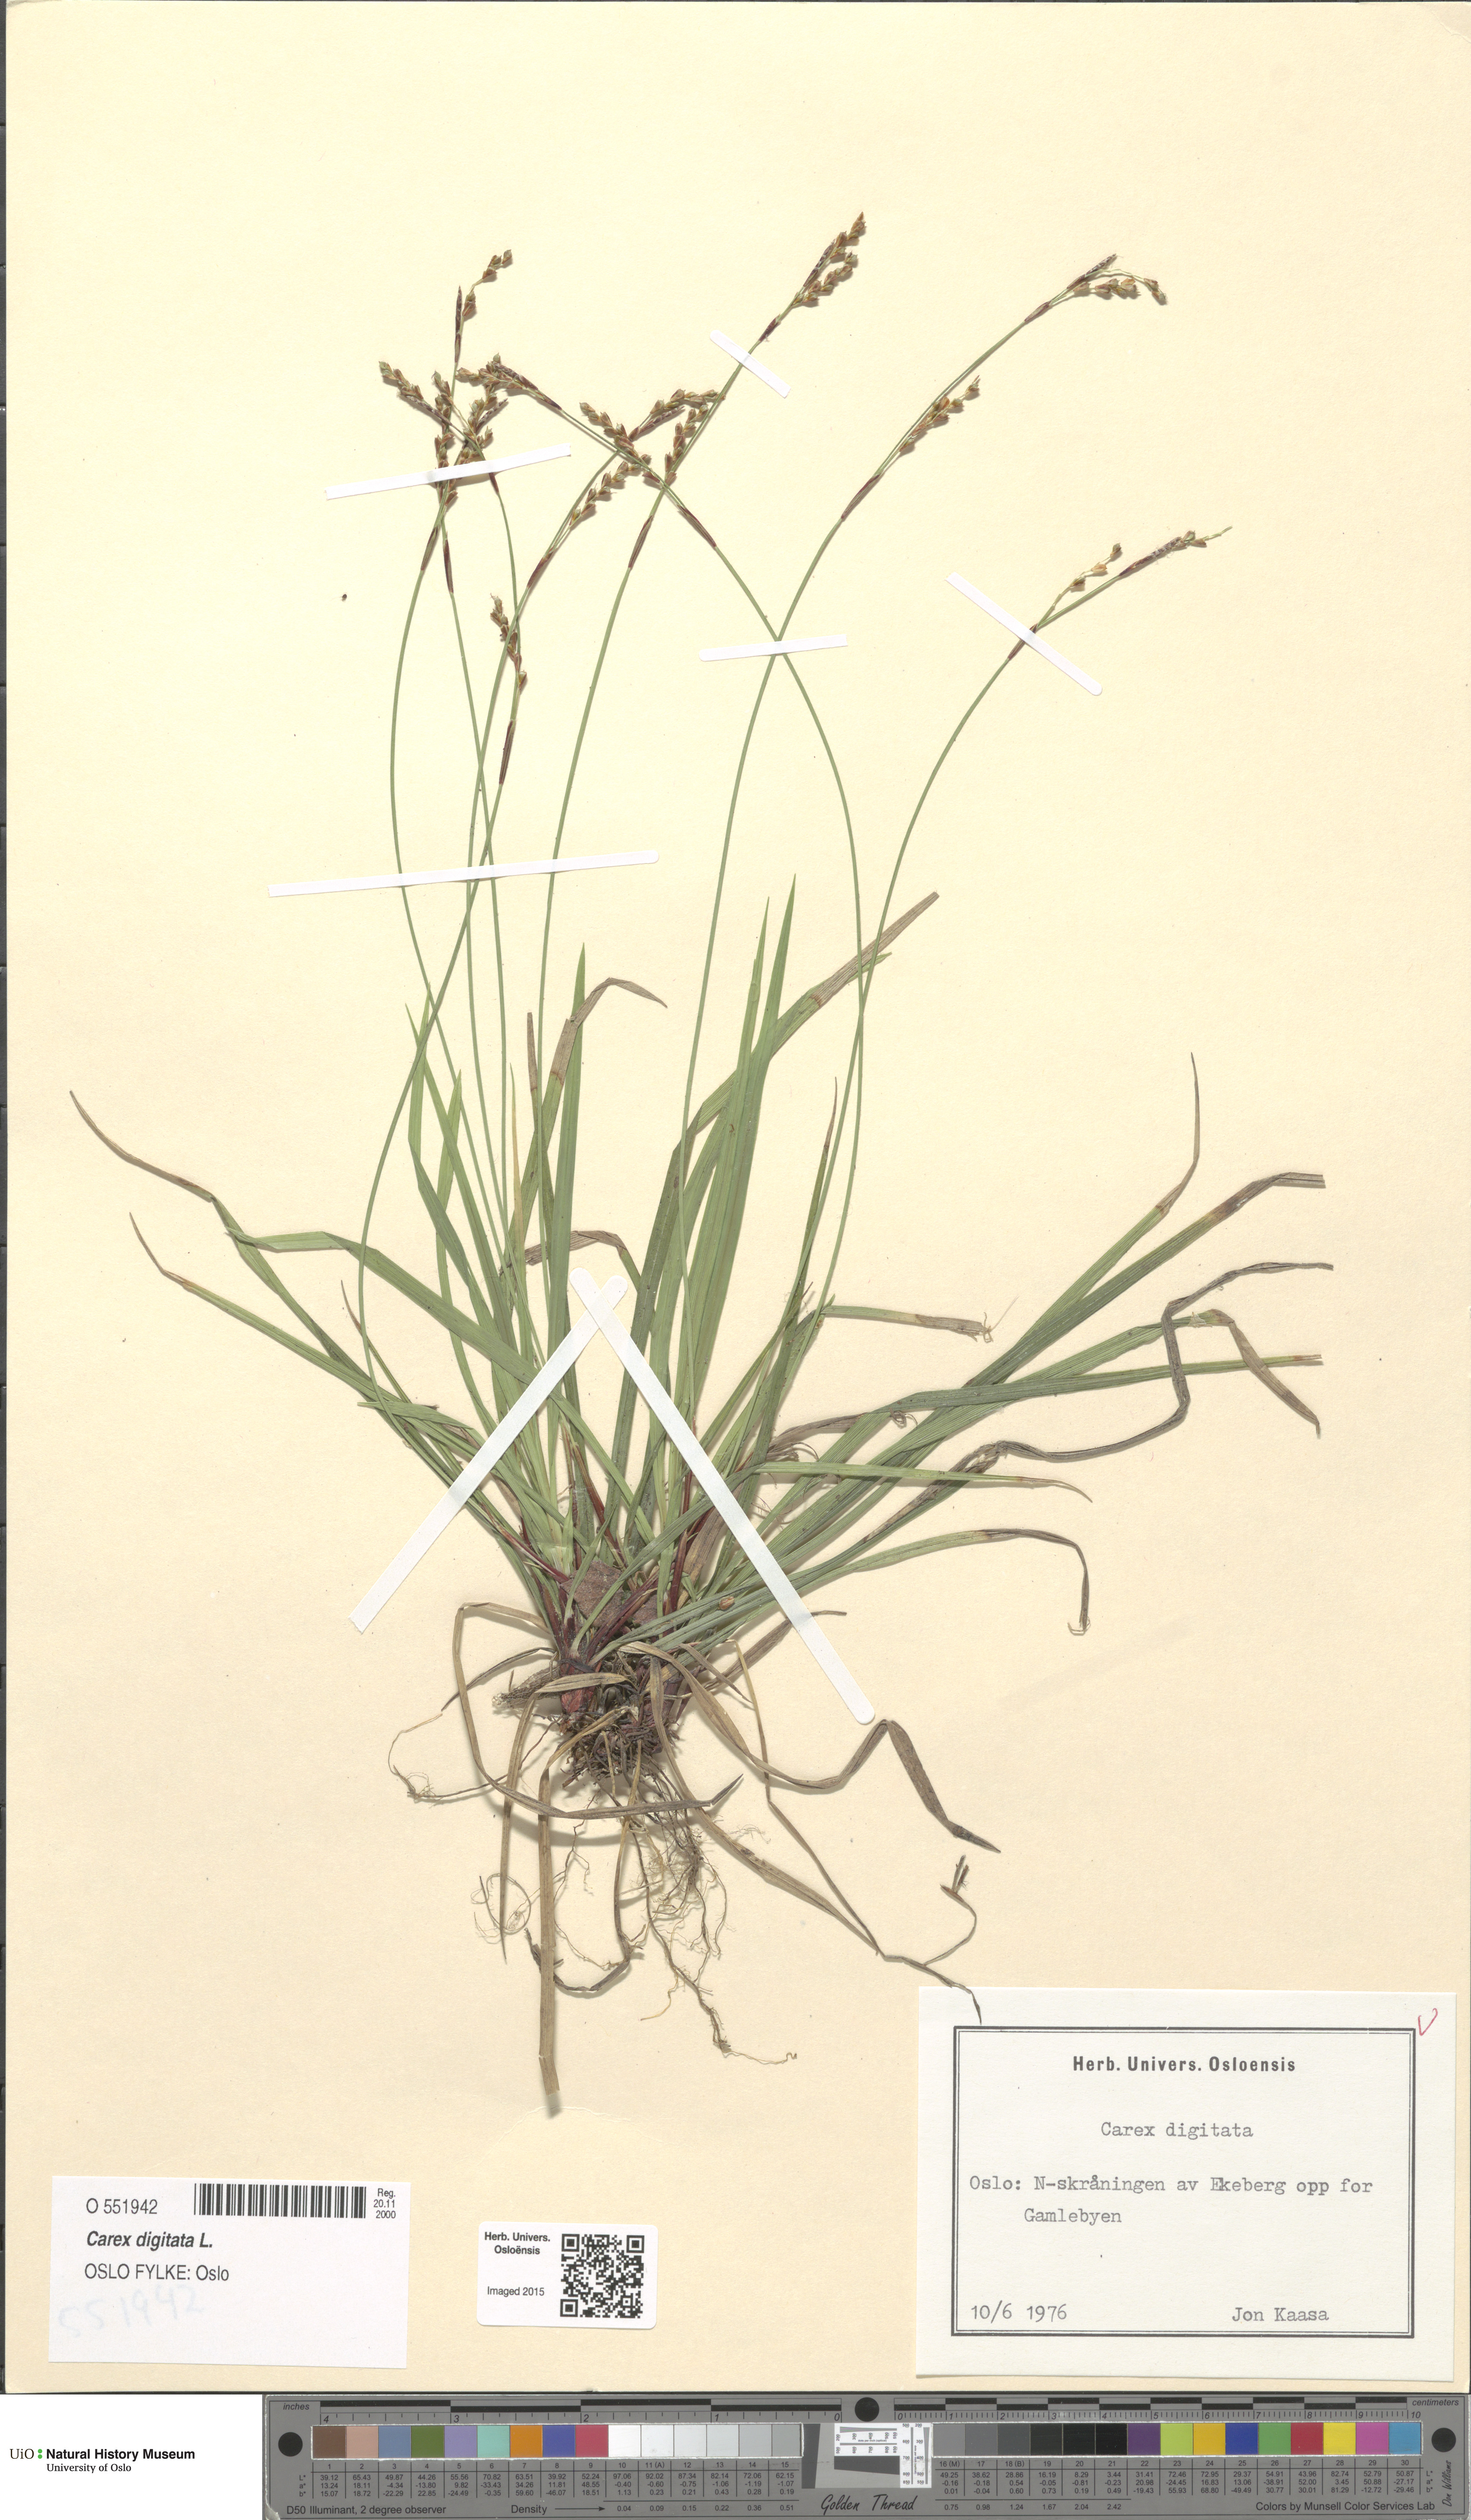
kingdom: Plantae
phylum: Tracheophyta
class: Liliopsida
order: Poales
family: Cyperaceae
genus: Carex
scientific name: Carex digitata
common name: Fingered sedge
